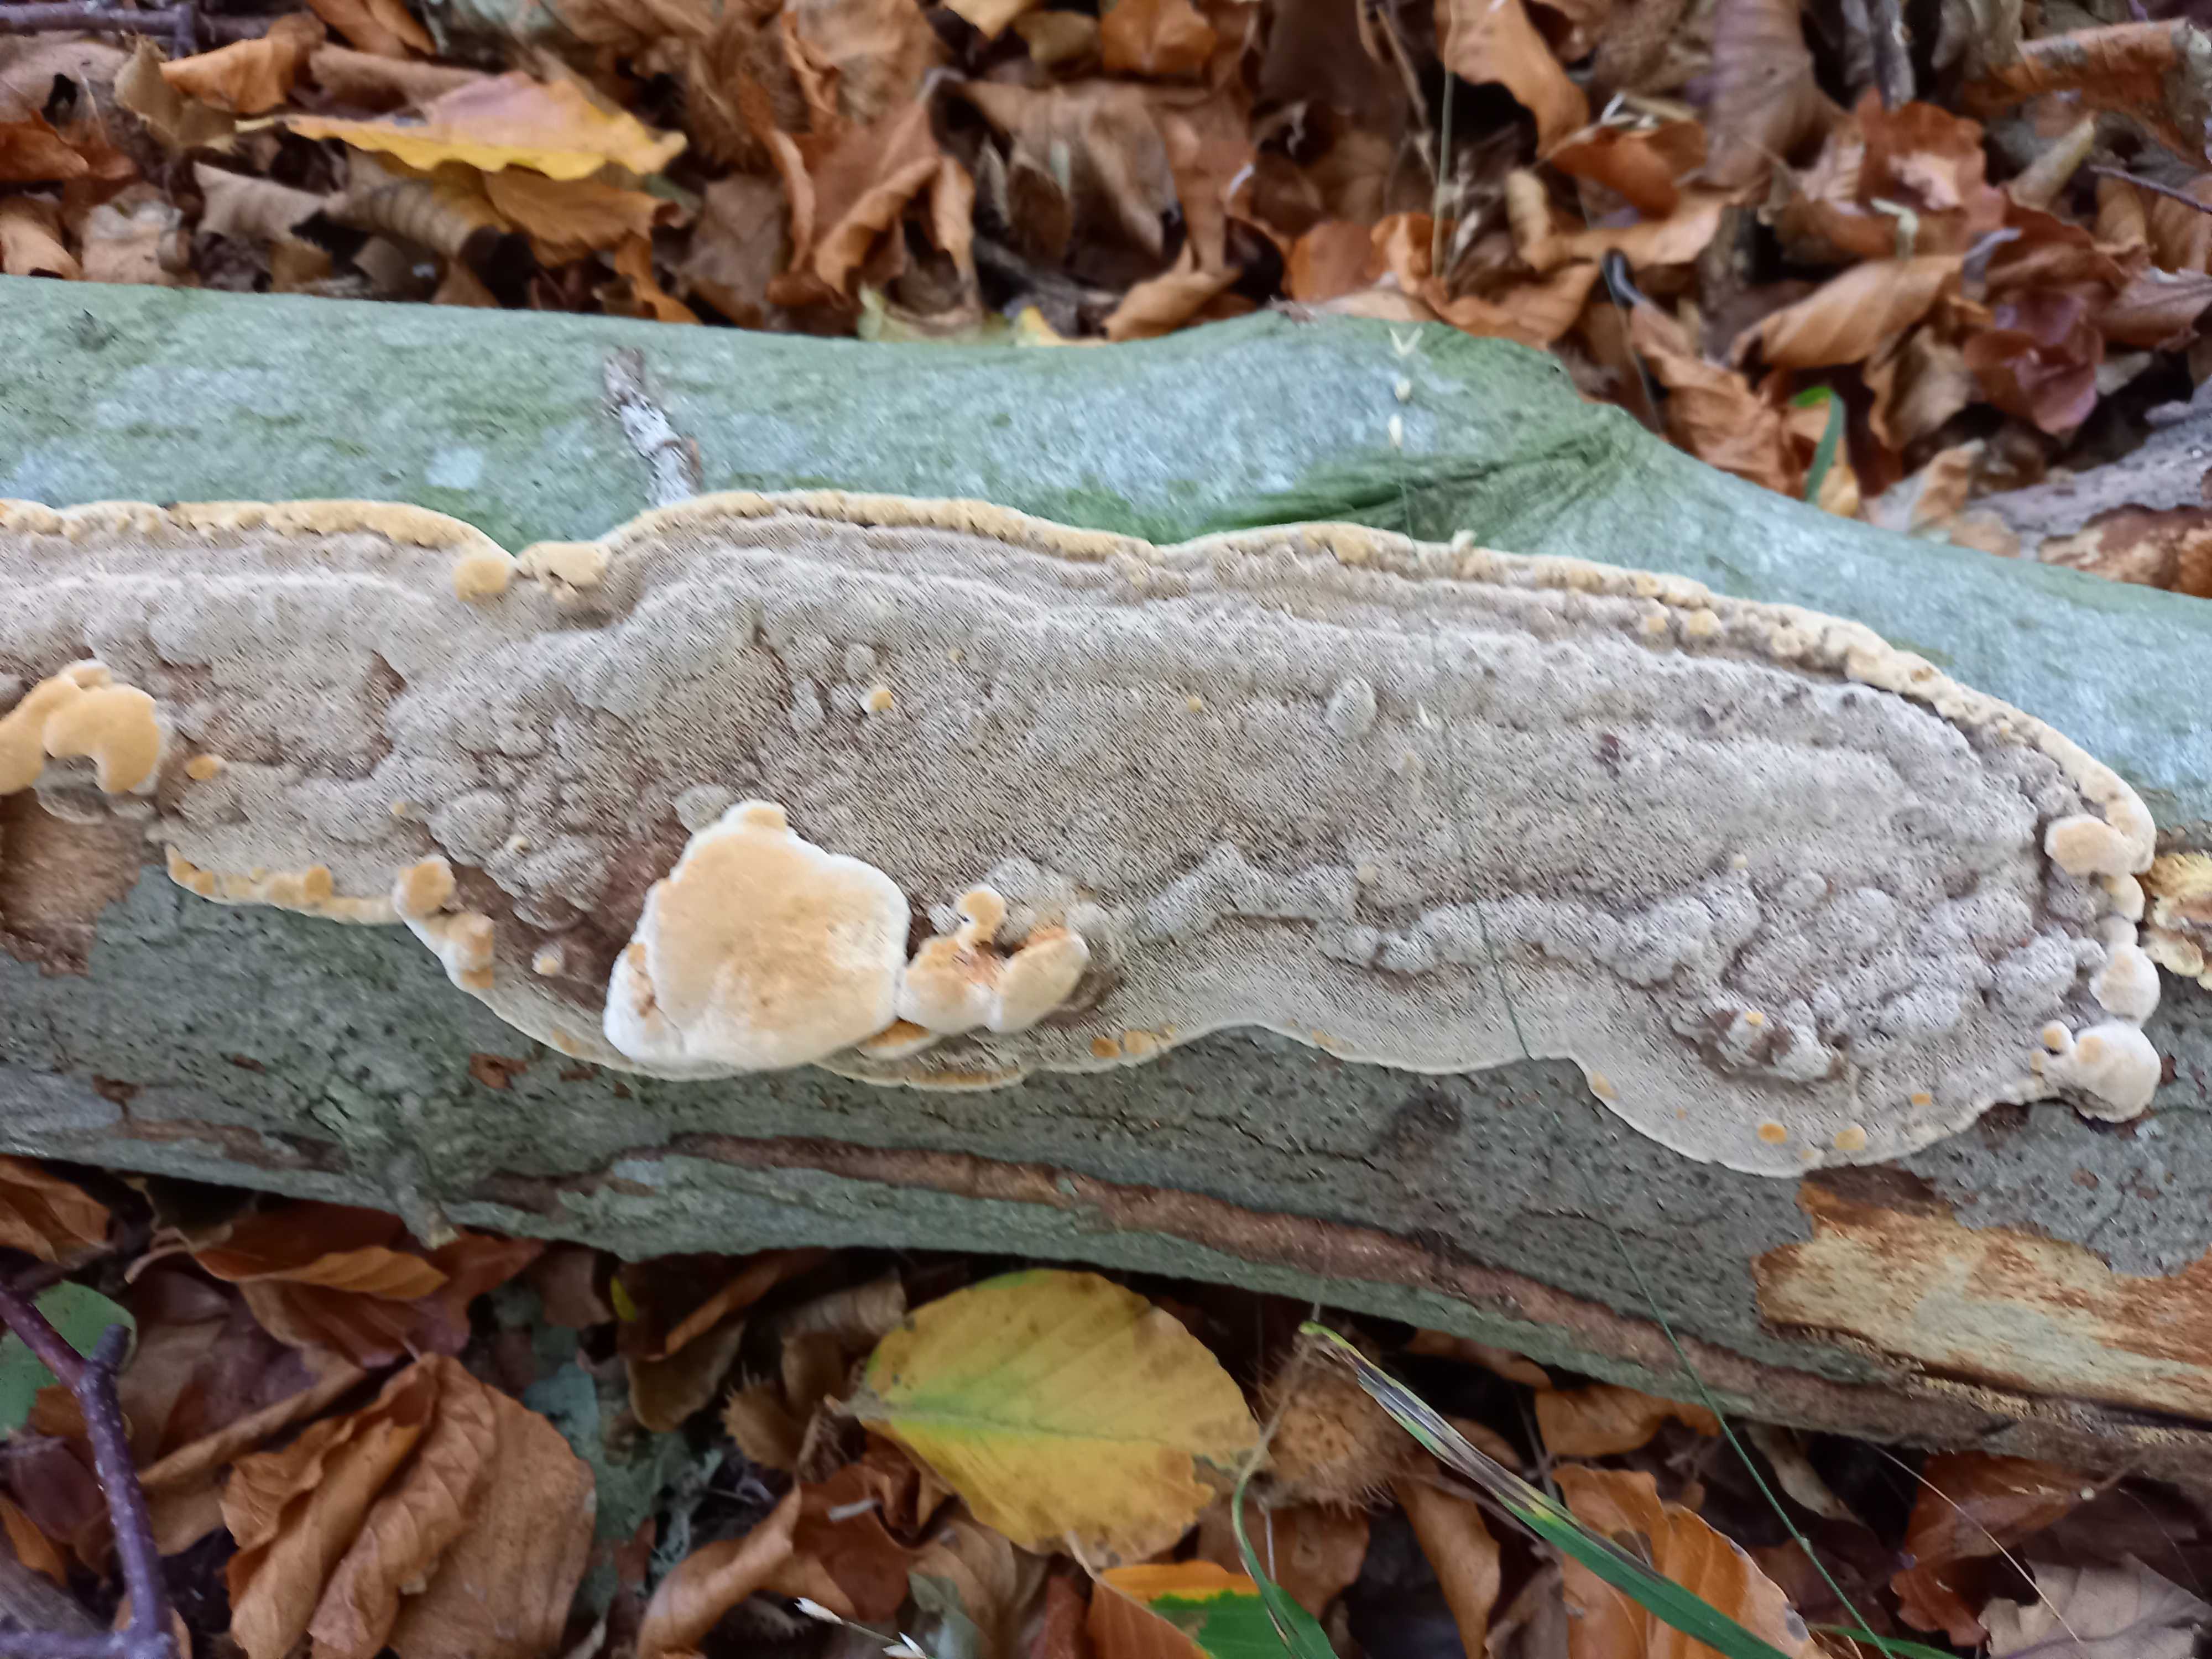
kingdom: Fungi
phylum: Basidiomycota
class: Agaricomycetes
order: Hymenochaetales
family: Hymenochaetaceae
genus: Mensularia
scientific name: Mensularia nodulosa
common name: bøge-spejlporesvamp
